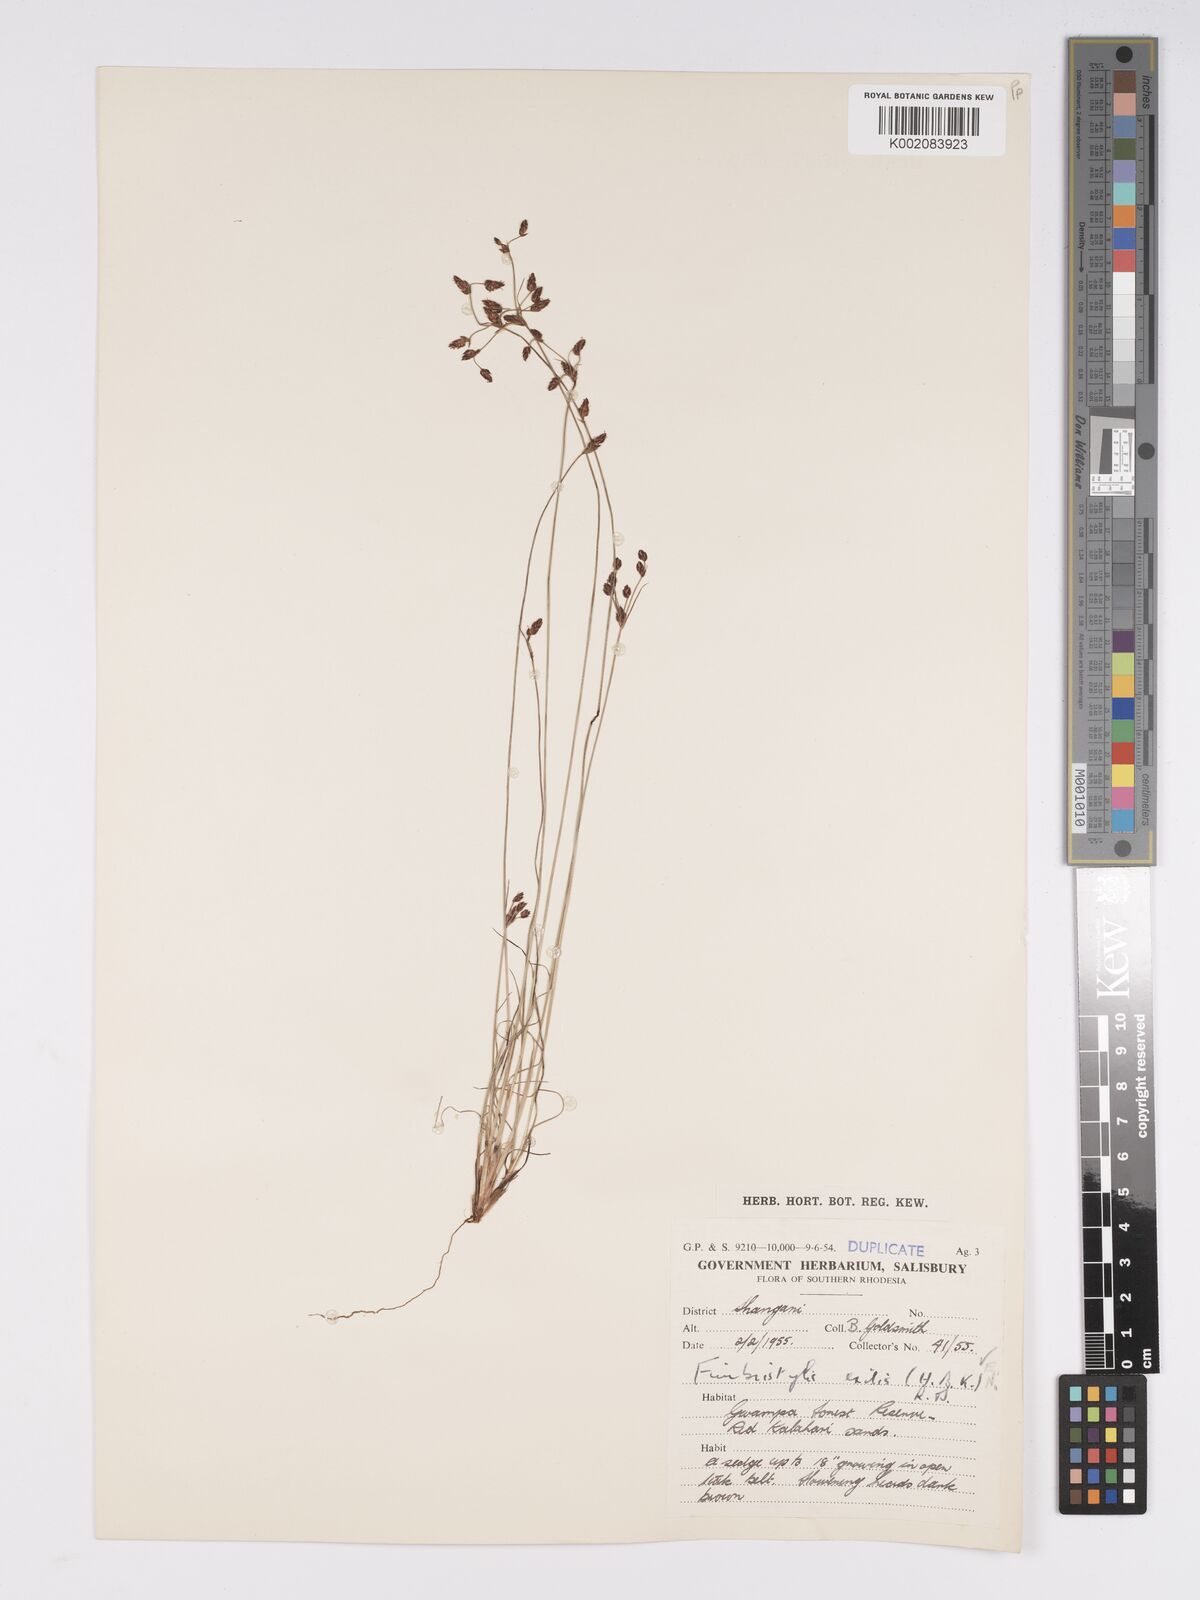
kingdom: Plantae
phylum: Tracheophyta
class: Liliopsida
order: Poales
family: Cyperaceae
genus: Bulbostylis
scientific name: Bulbostylis hispidula
